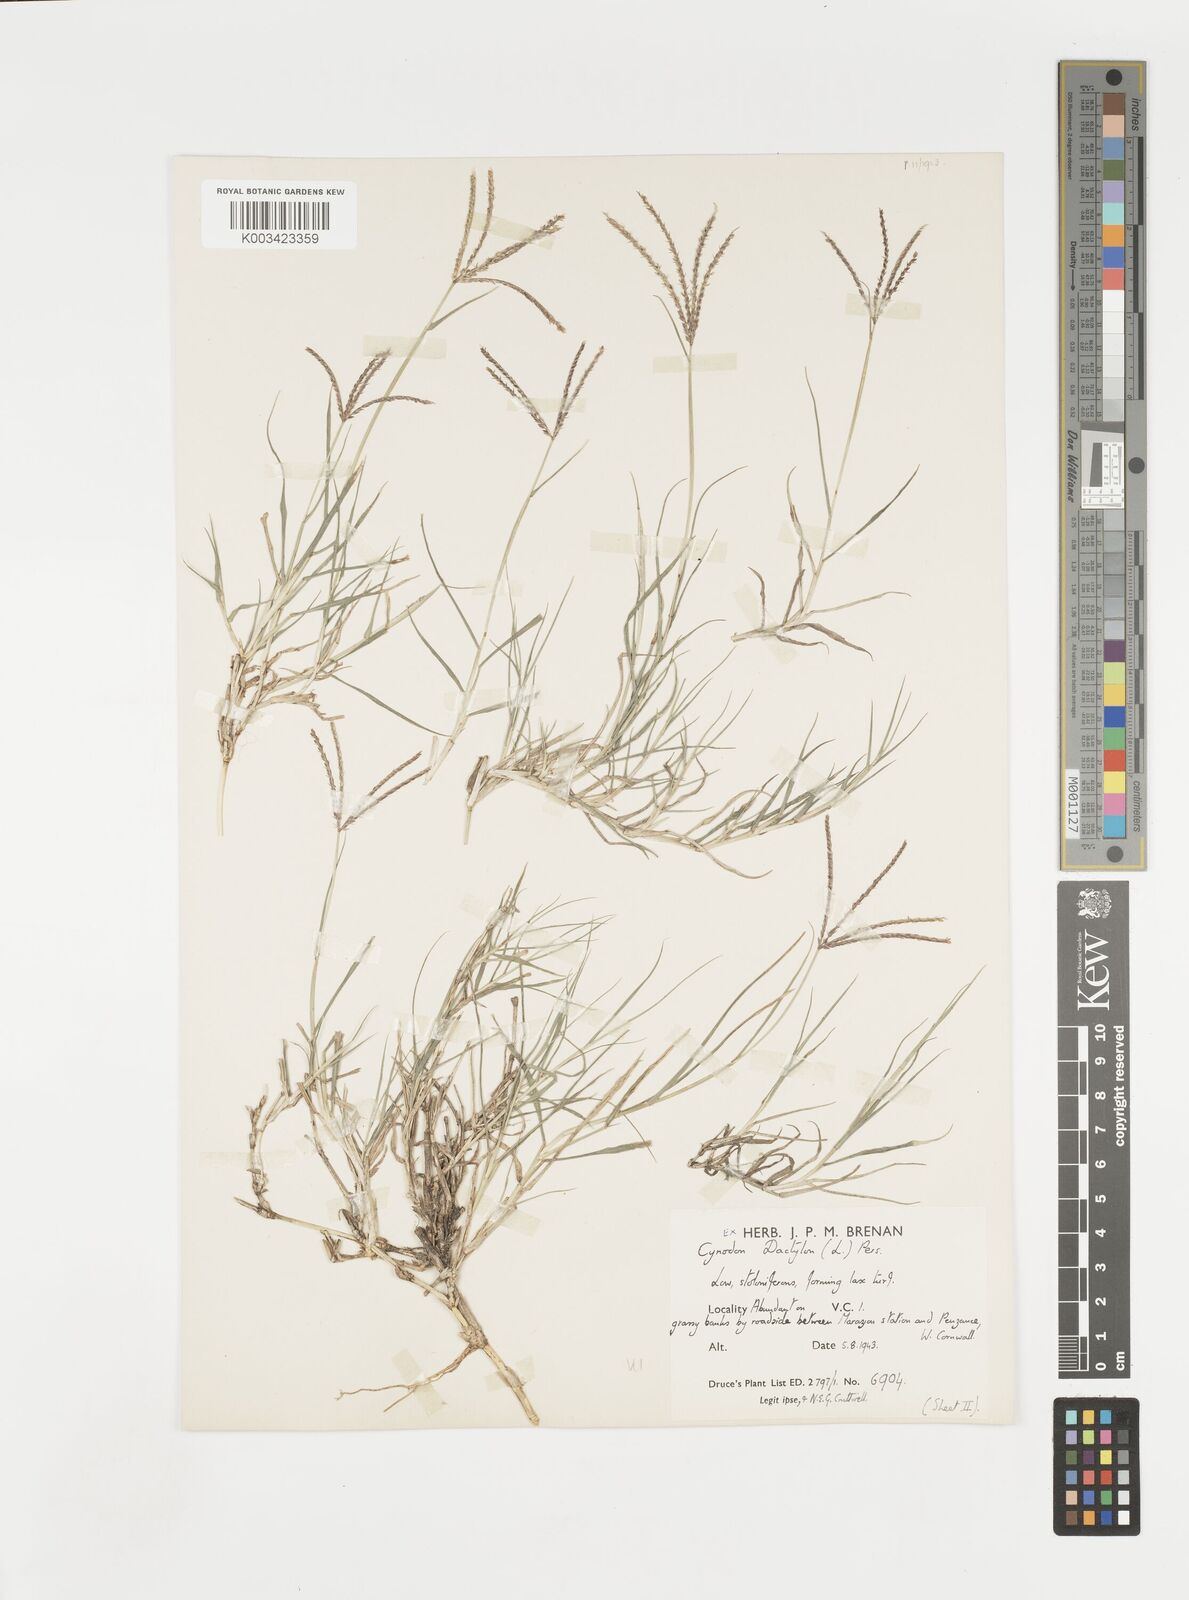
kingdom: Plantae
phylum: Tracheophyta
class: Liliopsida
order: Poales
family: Poaceae
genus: Cynodon
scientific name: Cynodon dactylon
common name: Bermuda grass
